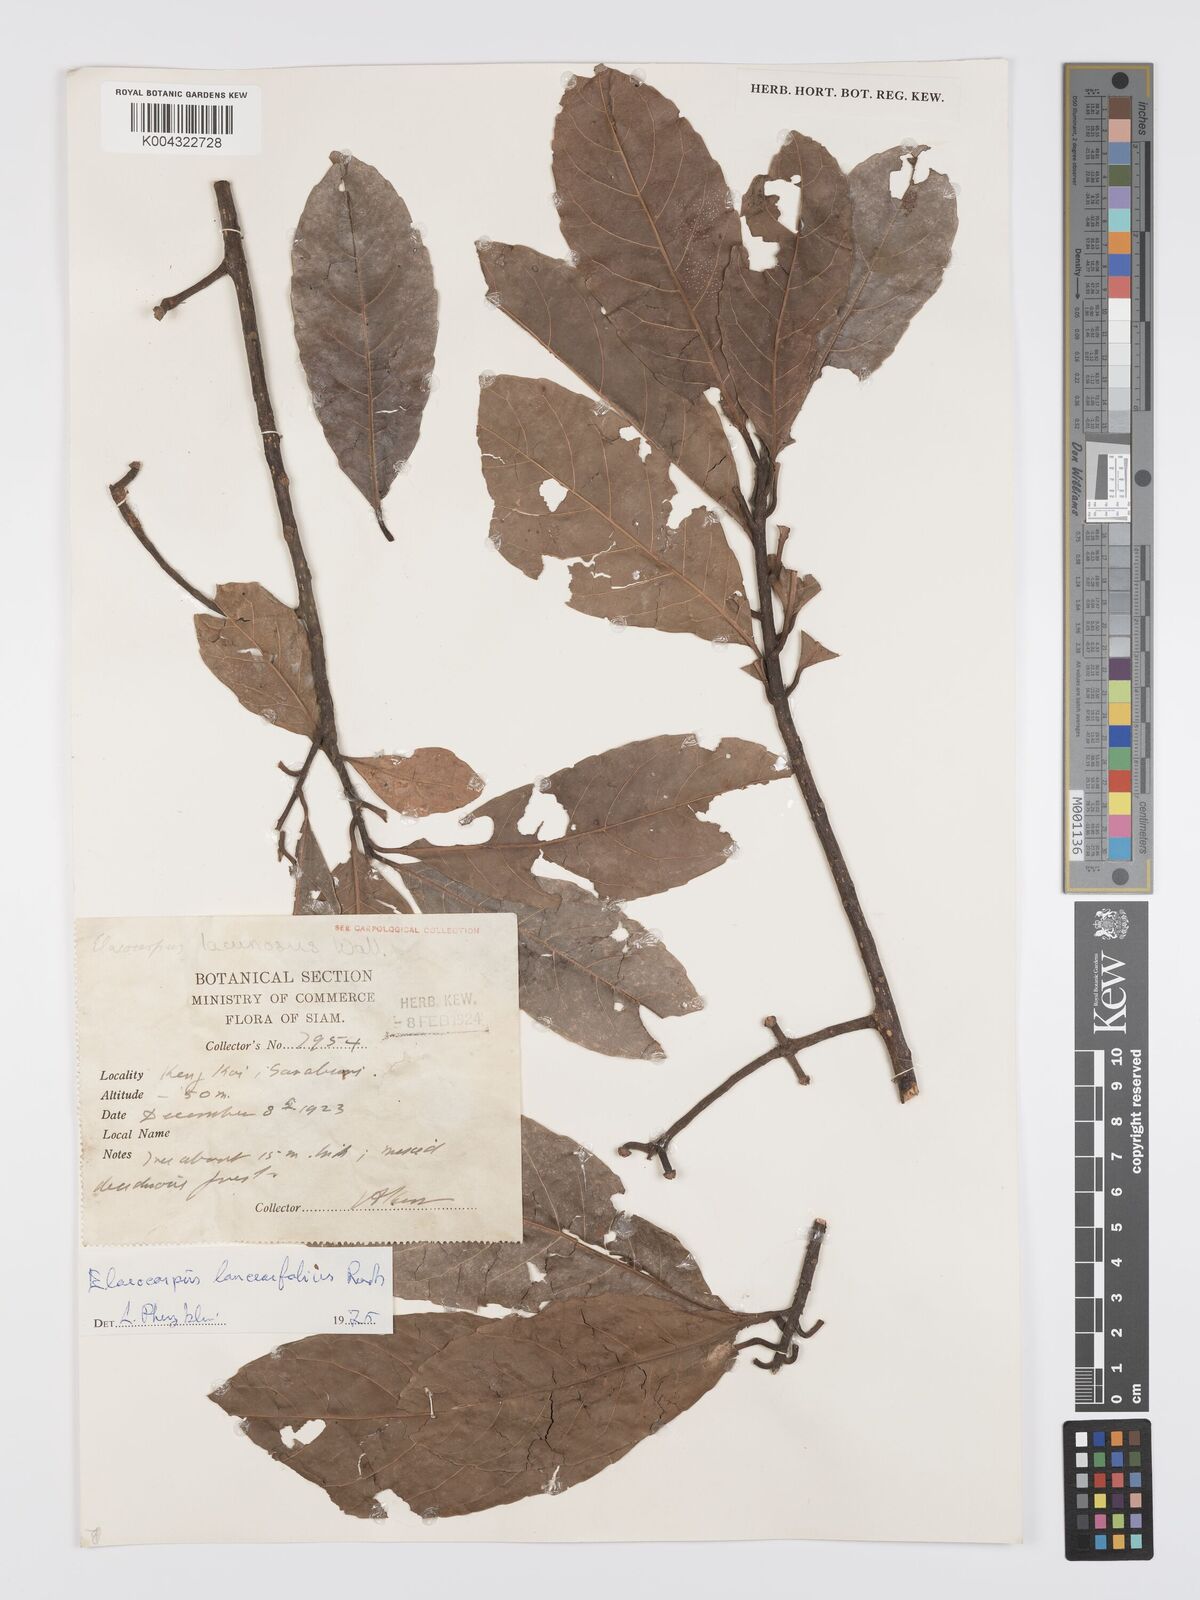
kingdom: Plantae
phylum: Tracheophyta
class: Magnoliopsida
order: Oxalidales
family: Elaeocarpaceae
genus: Elaeocarpus
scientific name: Elaeocarpus lanceifolius
